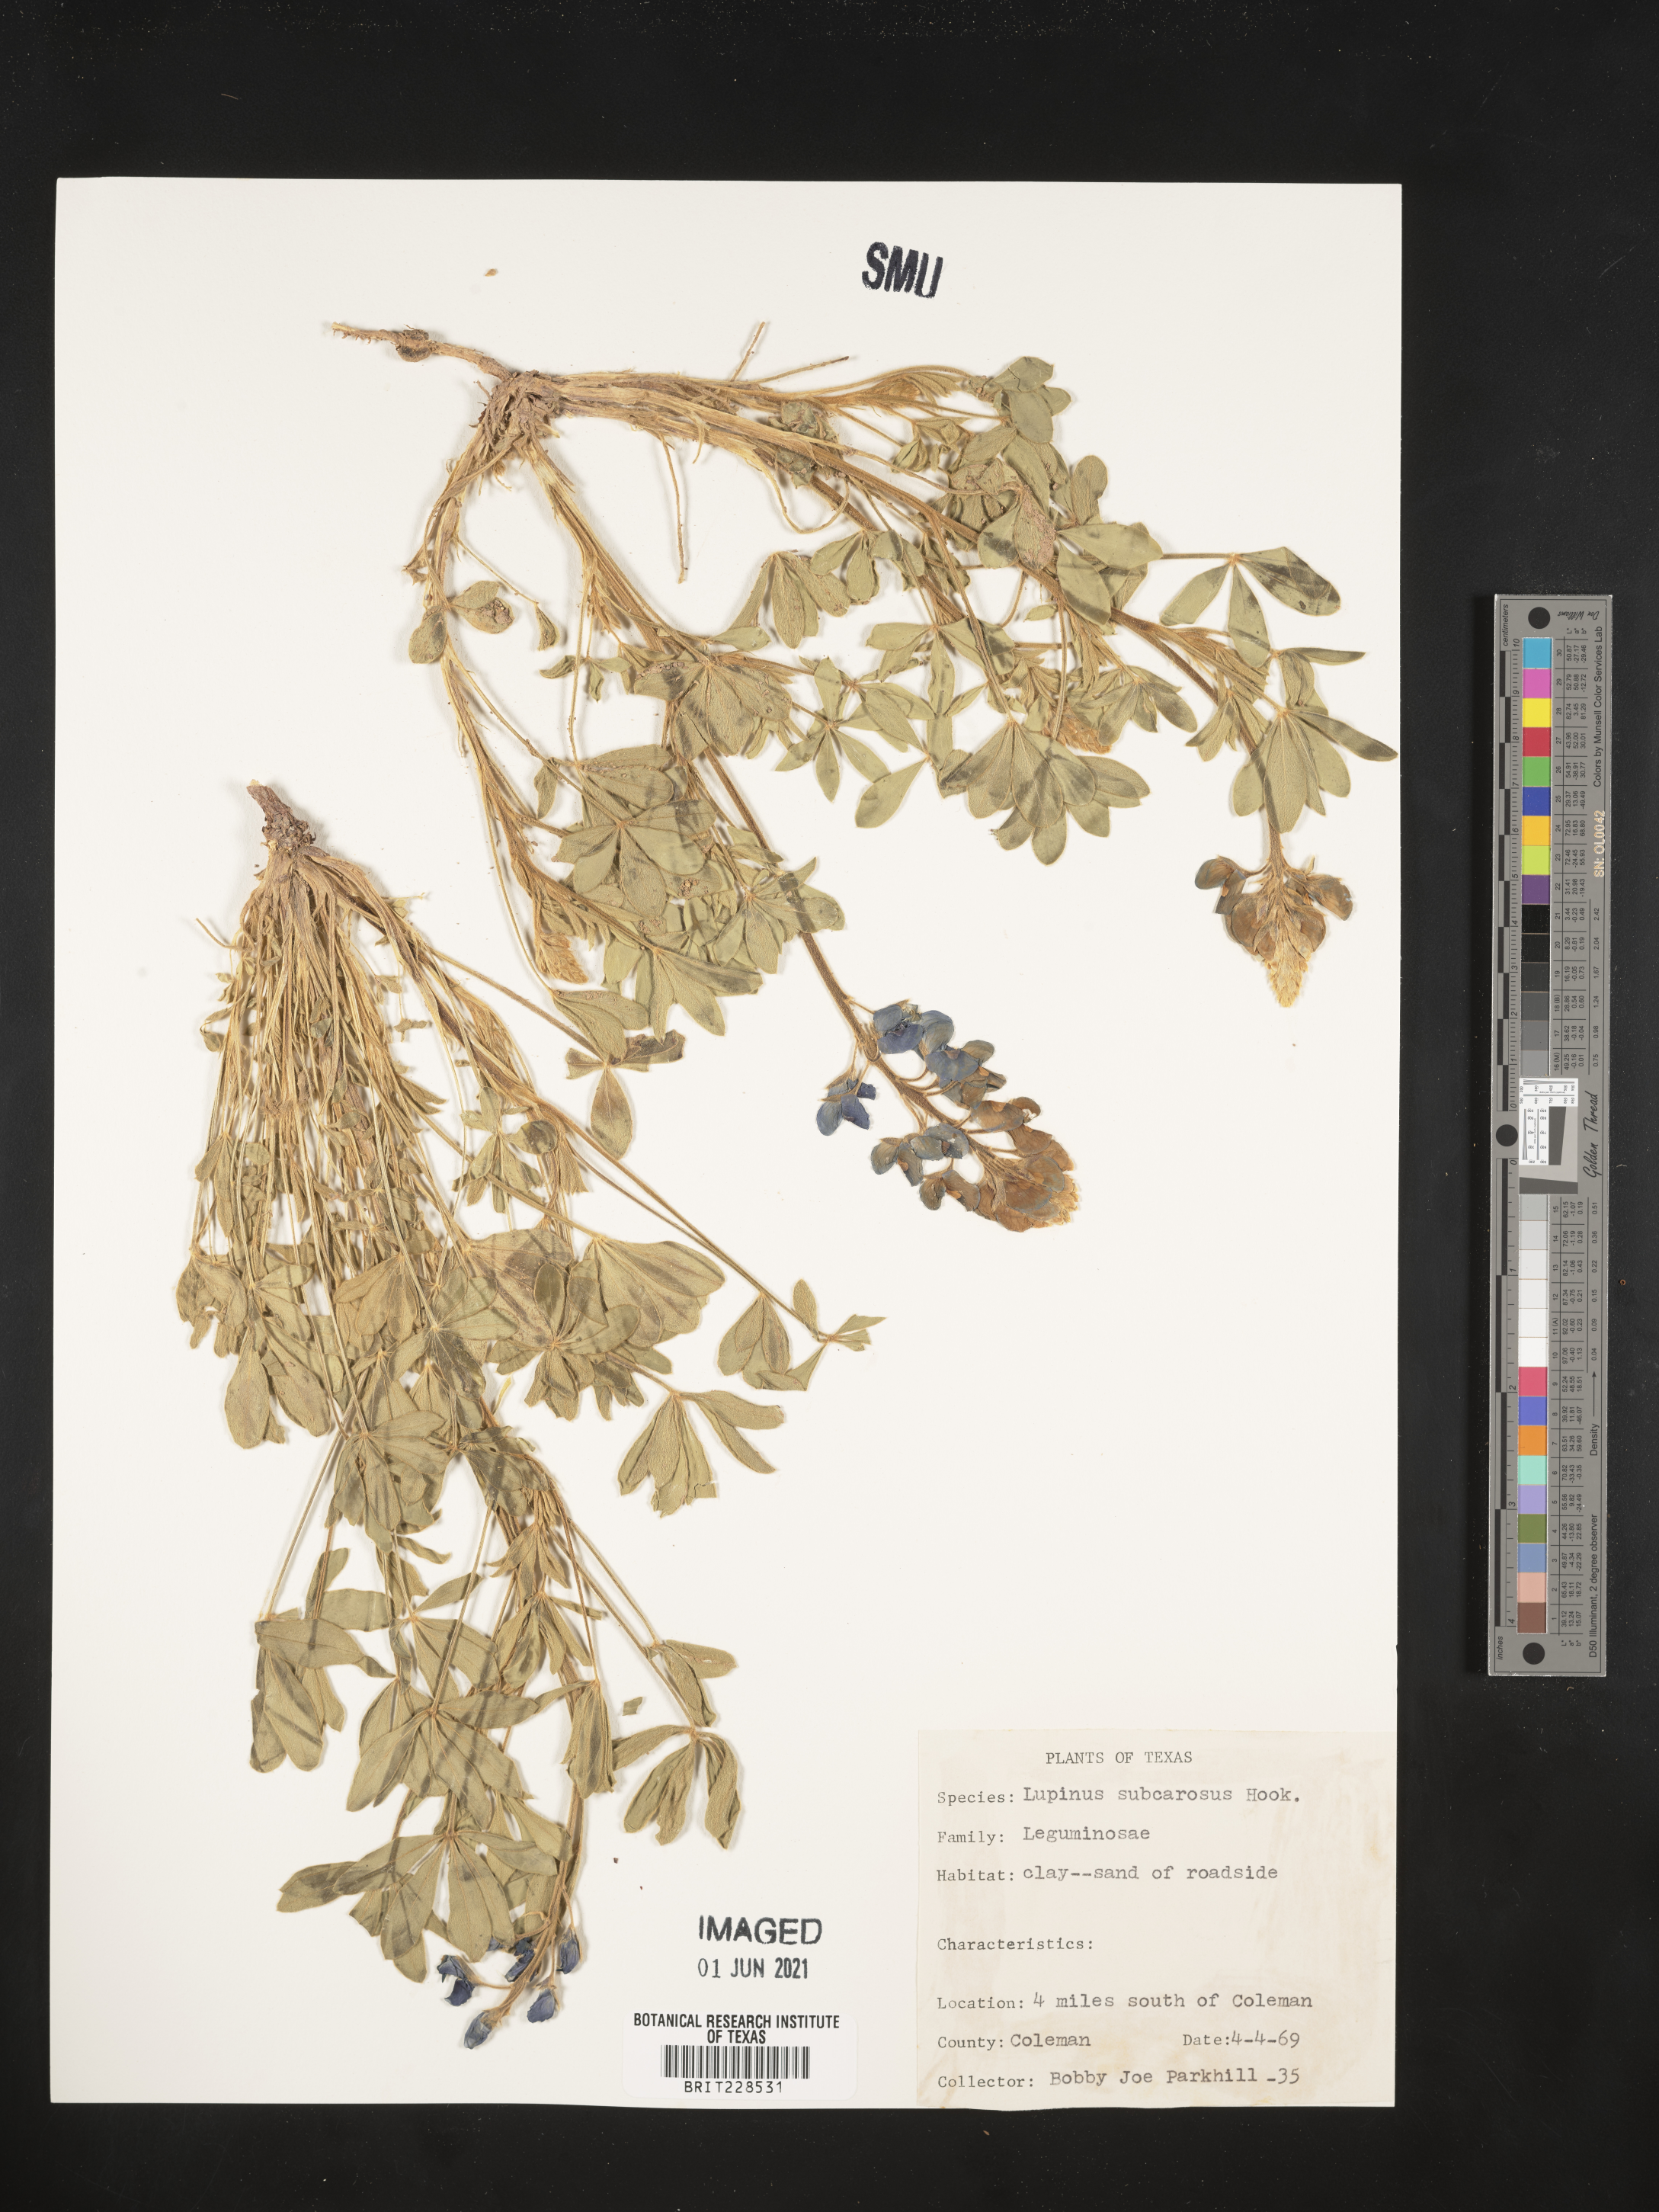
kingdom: Plantae
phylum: Tracheophyta
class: Magnoliopsida
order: Fabales
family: Fabaceae
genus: Lupinus
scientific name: Lupinus subcarnosus
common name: Texas bluebonnet
